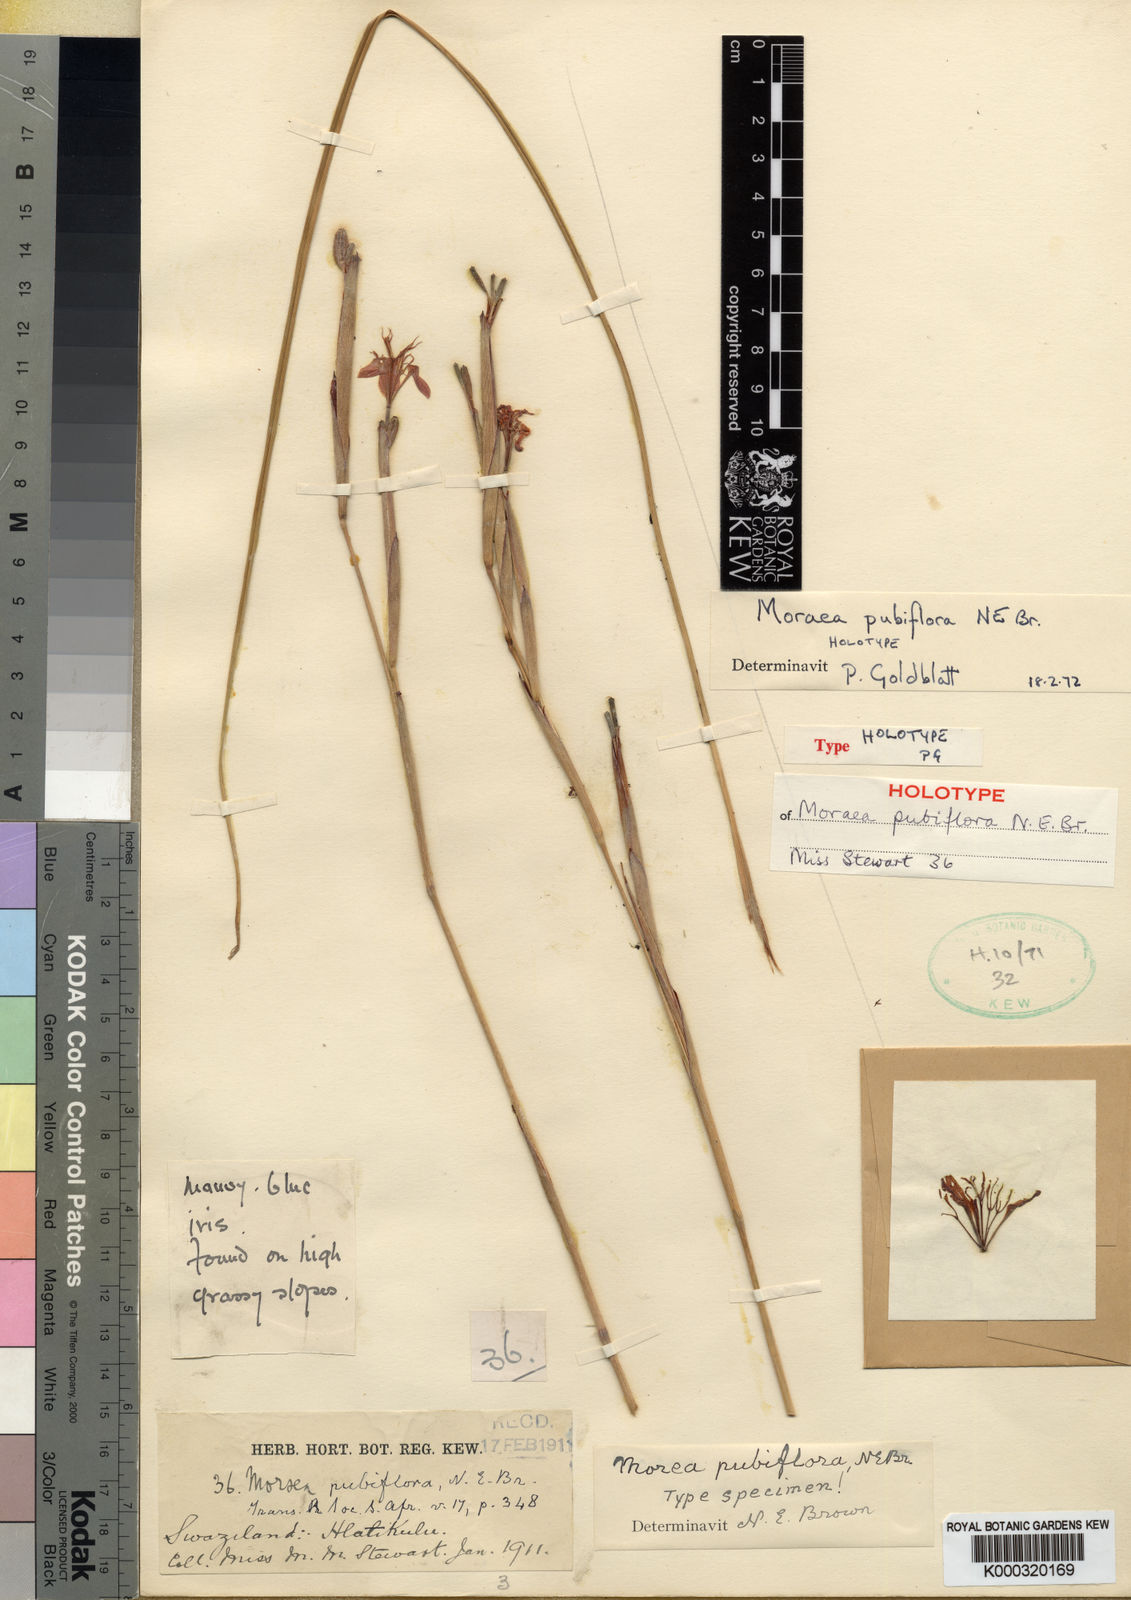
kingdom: Plantae
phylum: Tracheophyta
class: Liliopsida
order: Asparagales
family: Iridaceae
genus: Moraea
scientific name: Moraea pubiflora
